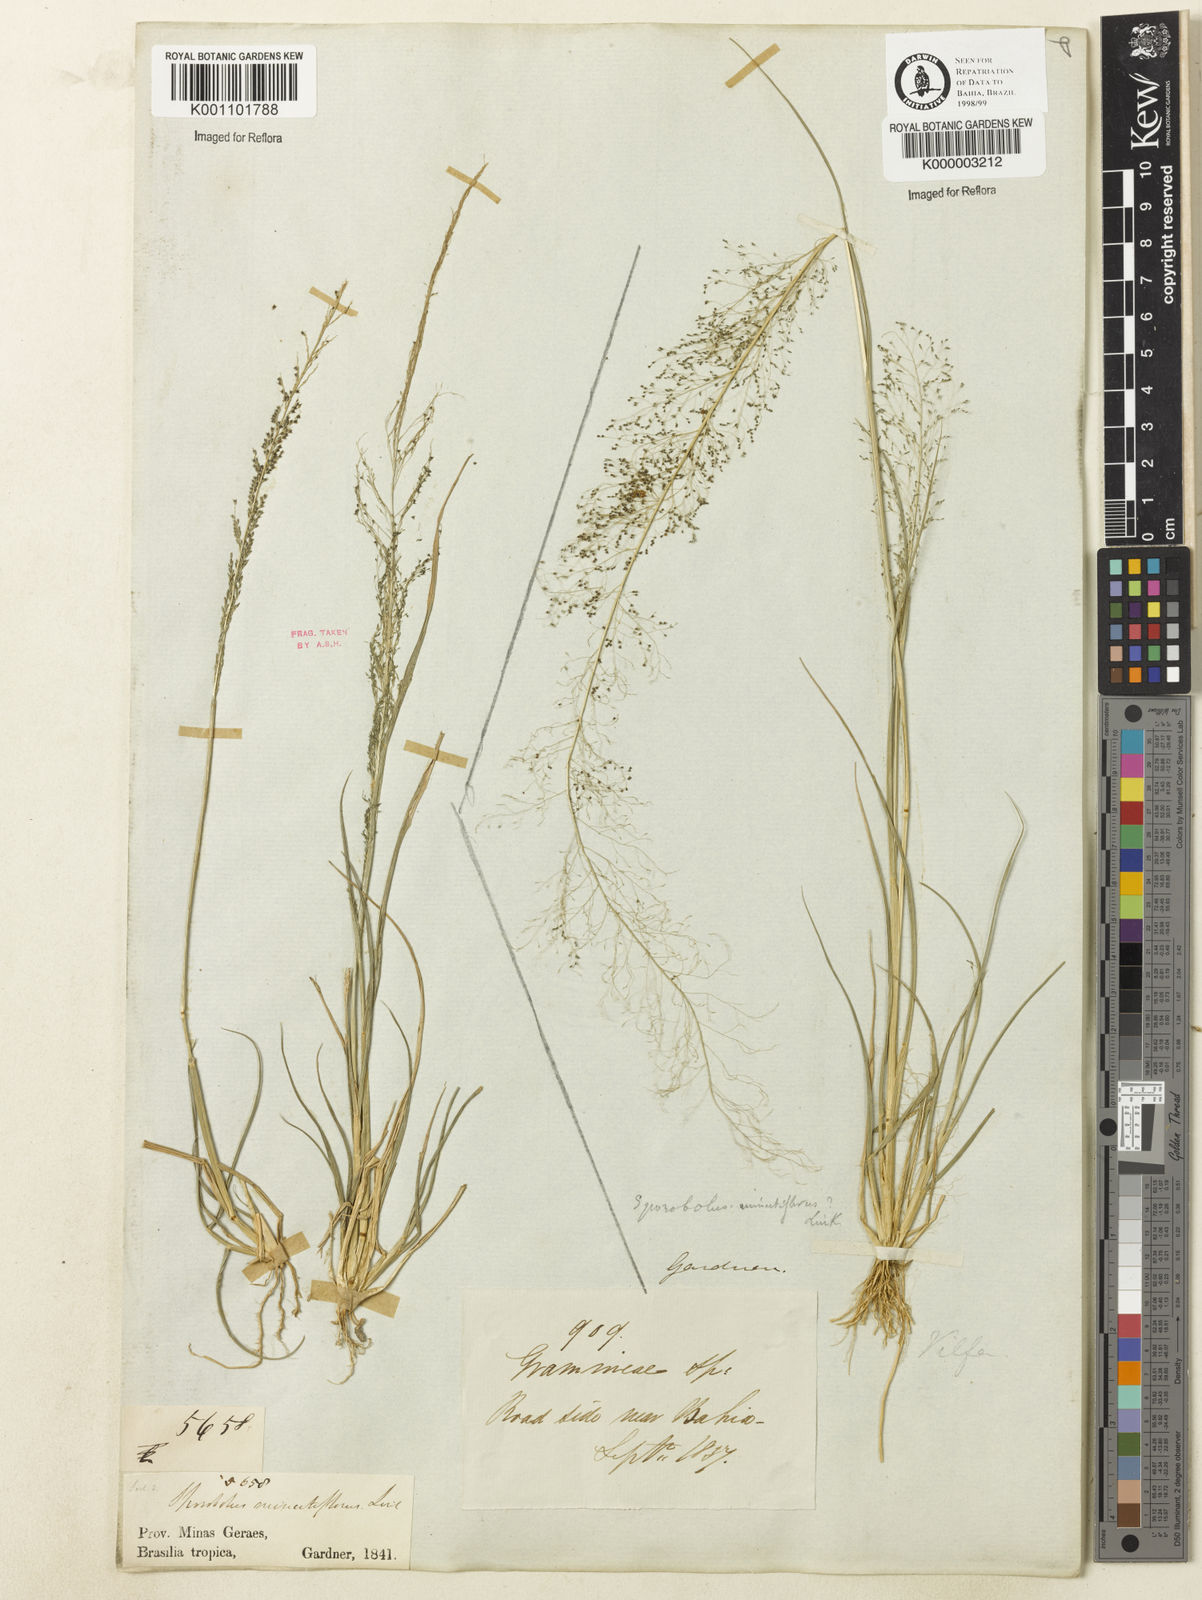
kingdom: Plantae
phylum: Tracheophyta
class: Liliopsida
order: Poales
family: Poaceae
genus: Sporobolus
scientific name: Sporobolus tenuissimus
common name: Tropical dropseed
